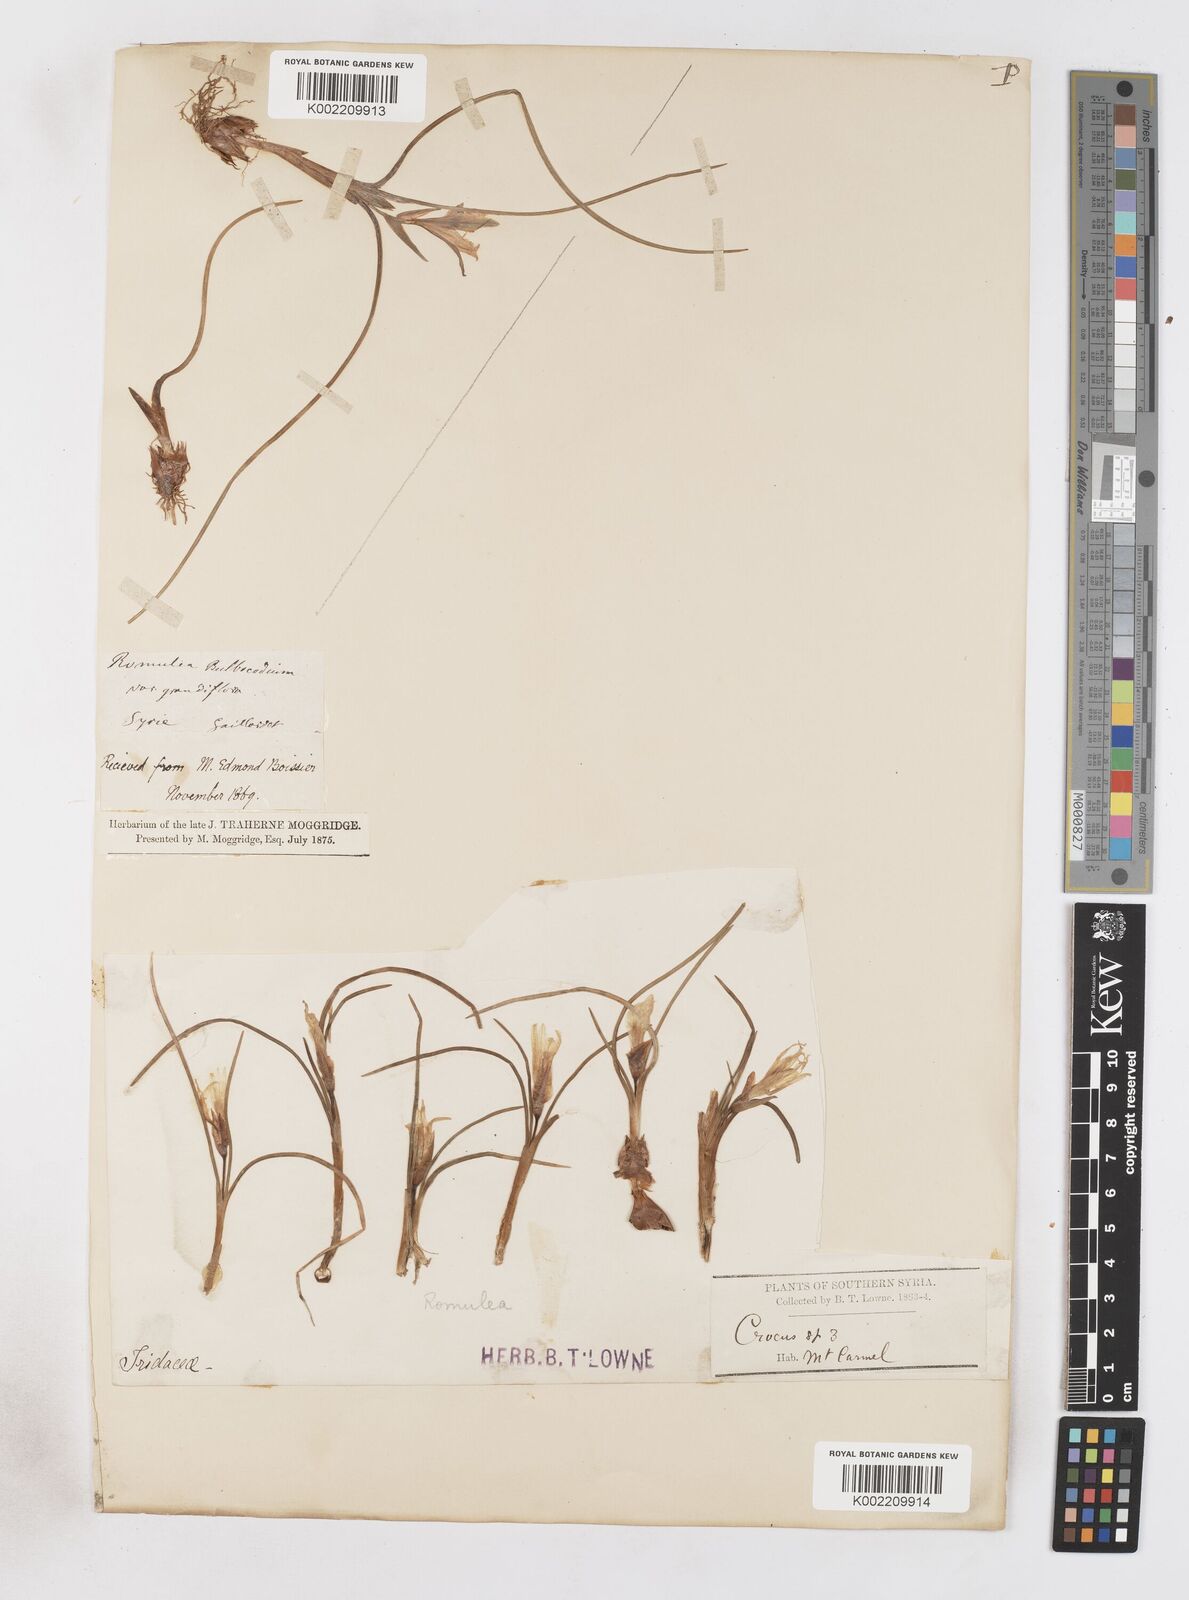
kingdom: Plantae
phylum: Tracheophyta
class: Liliopsida
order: Asparagales
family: Iridaceae
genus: Romulea
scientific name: Romulea bulbocodium
